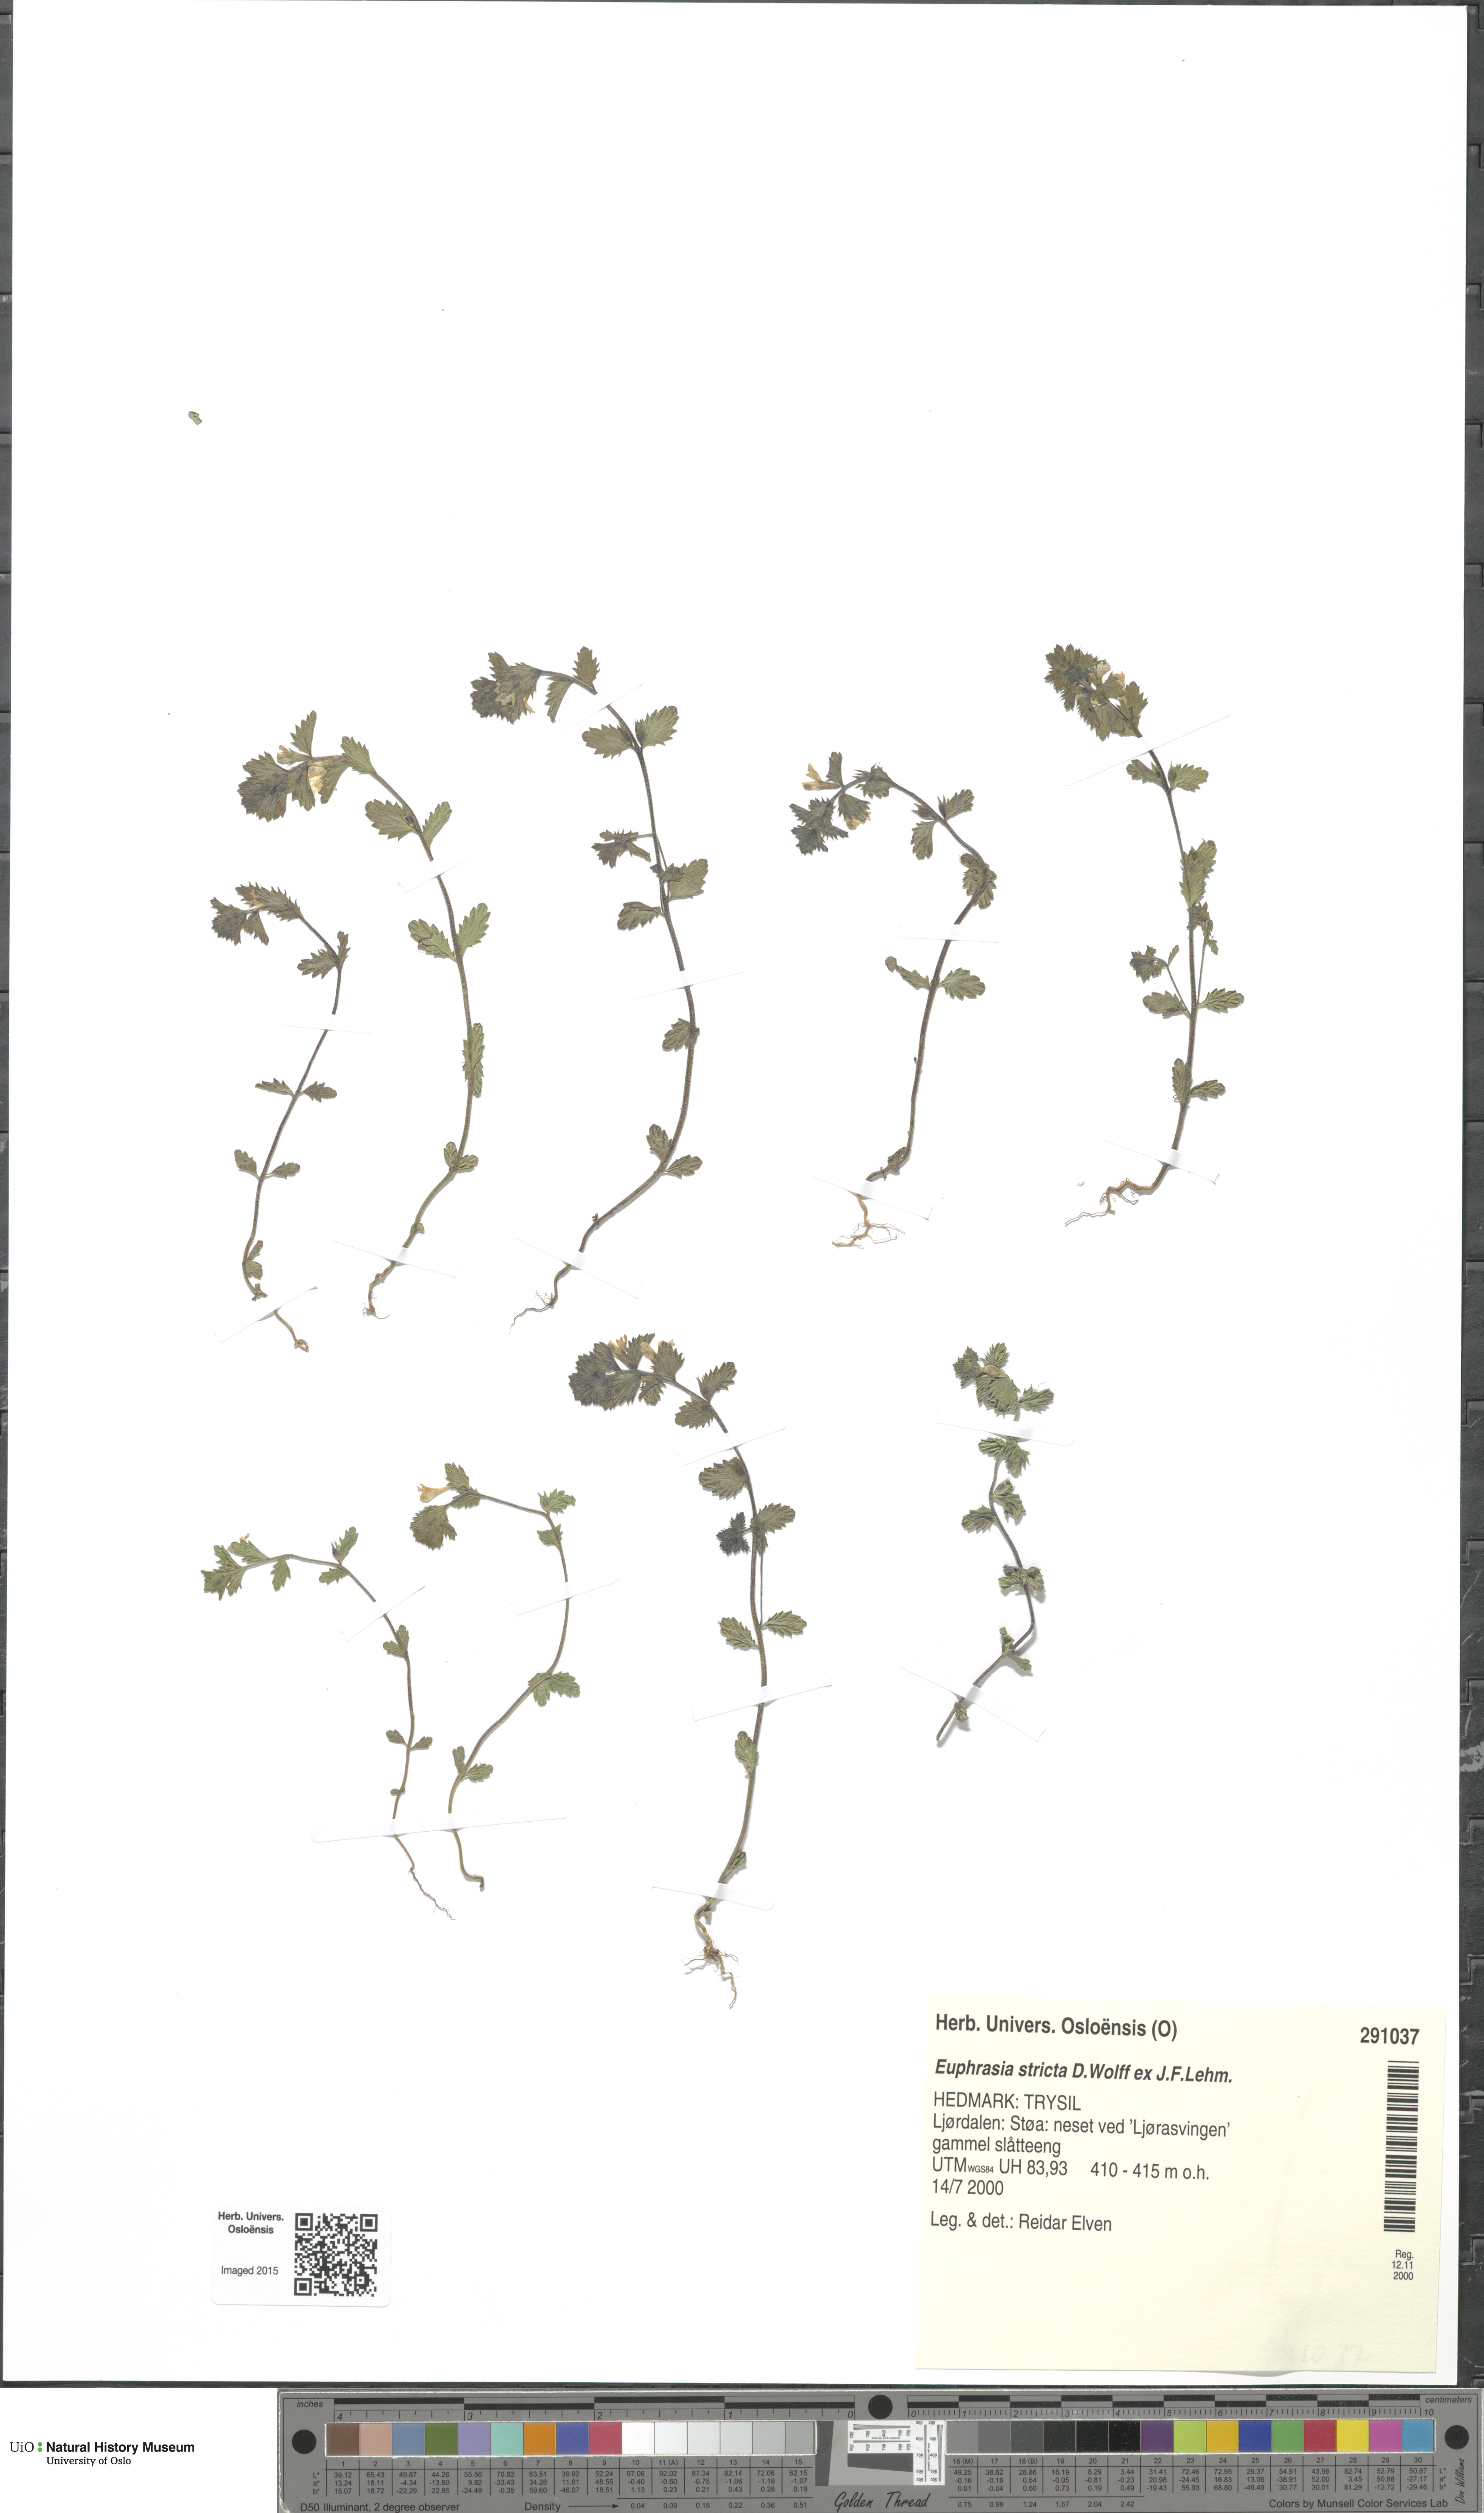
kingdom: Plantae
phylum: Tracheophyta
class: Magnoliopsida
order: Lamiales
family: Orobanchaceae
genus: Euphrasia
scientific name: Euphrasia stricta
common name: Drug eyebright
